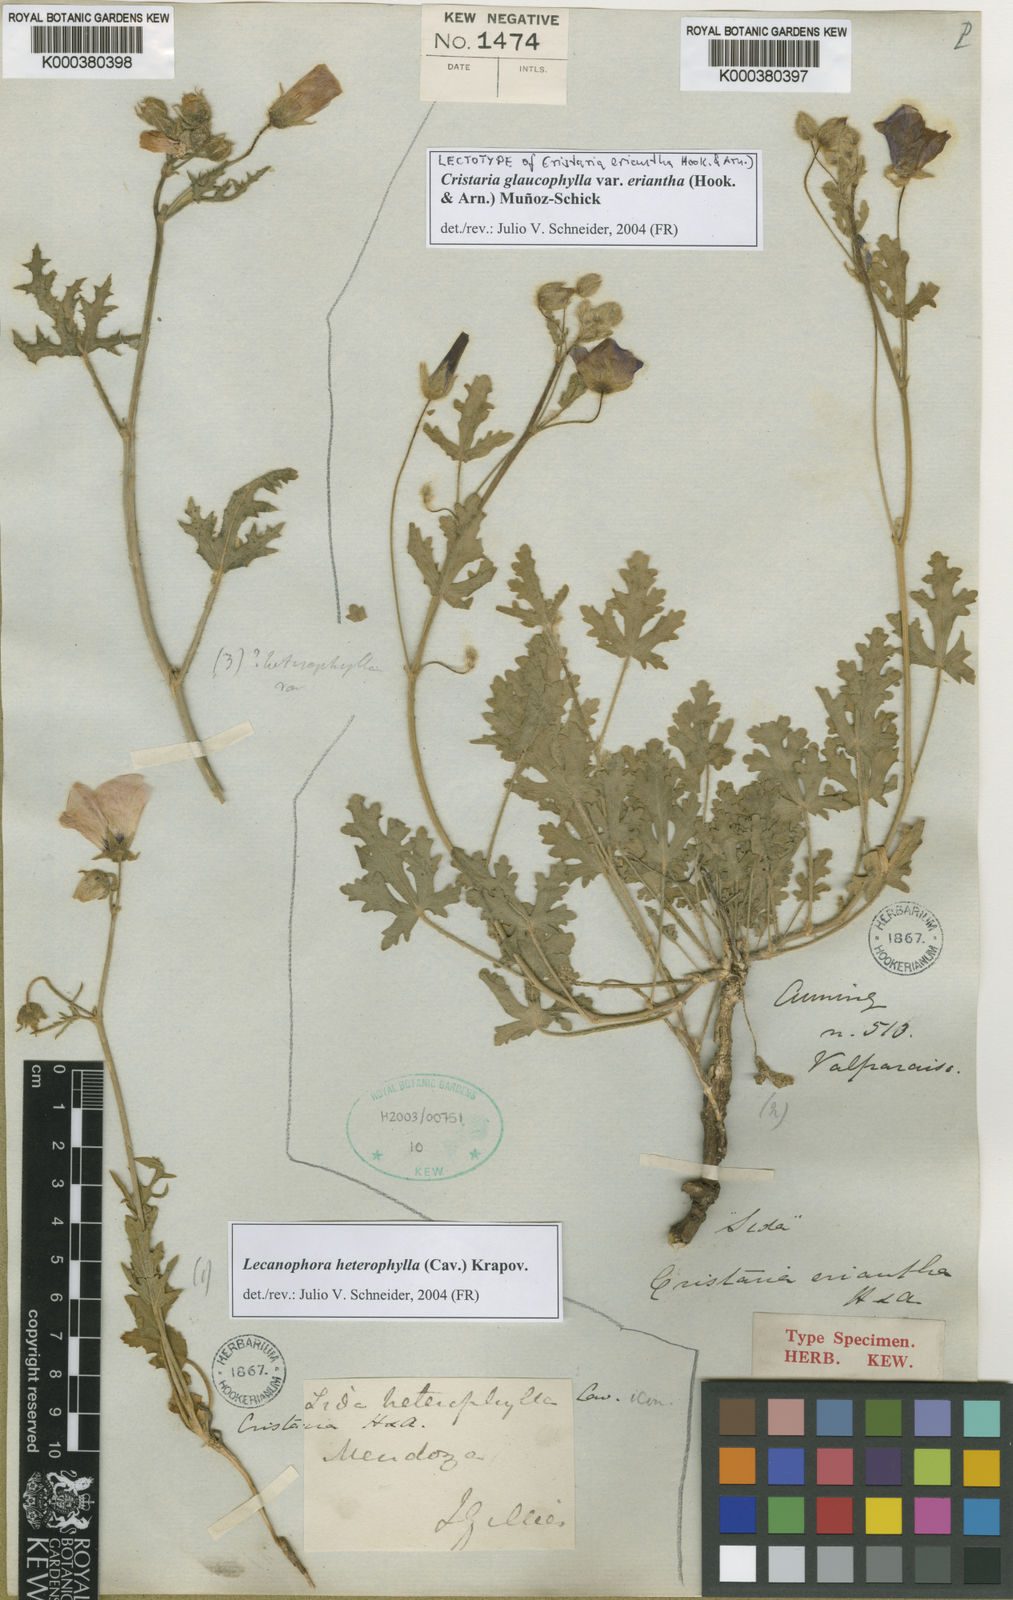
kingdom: Plantae
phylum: Tracheophyta
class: Magnoliopsida
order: Malvales
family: Malvaceae
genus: Cristaria
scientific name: Cristaria glaucophylla
